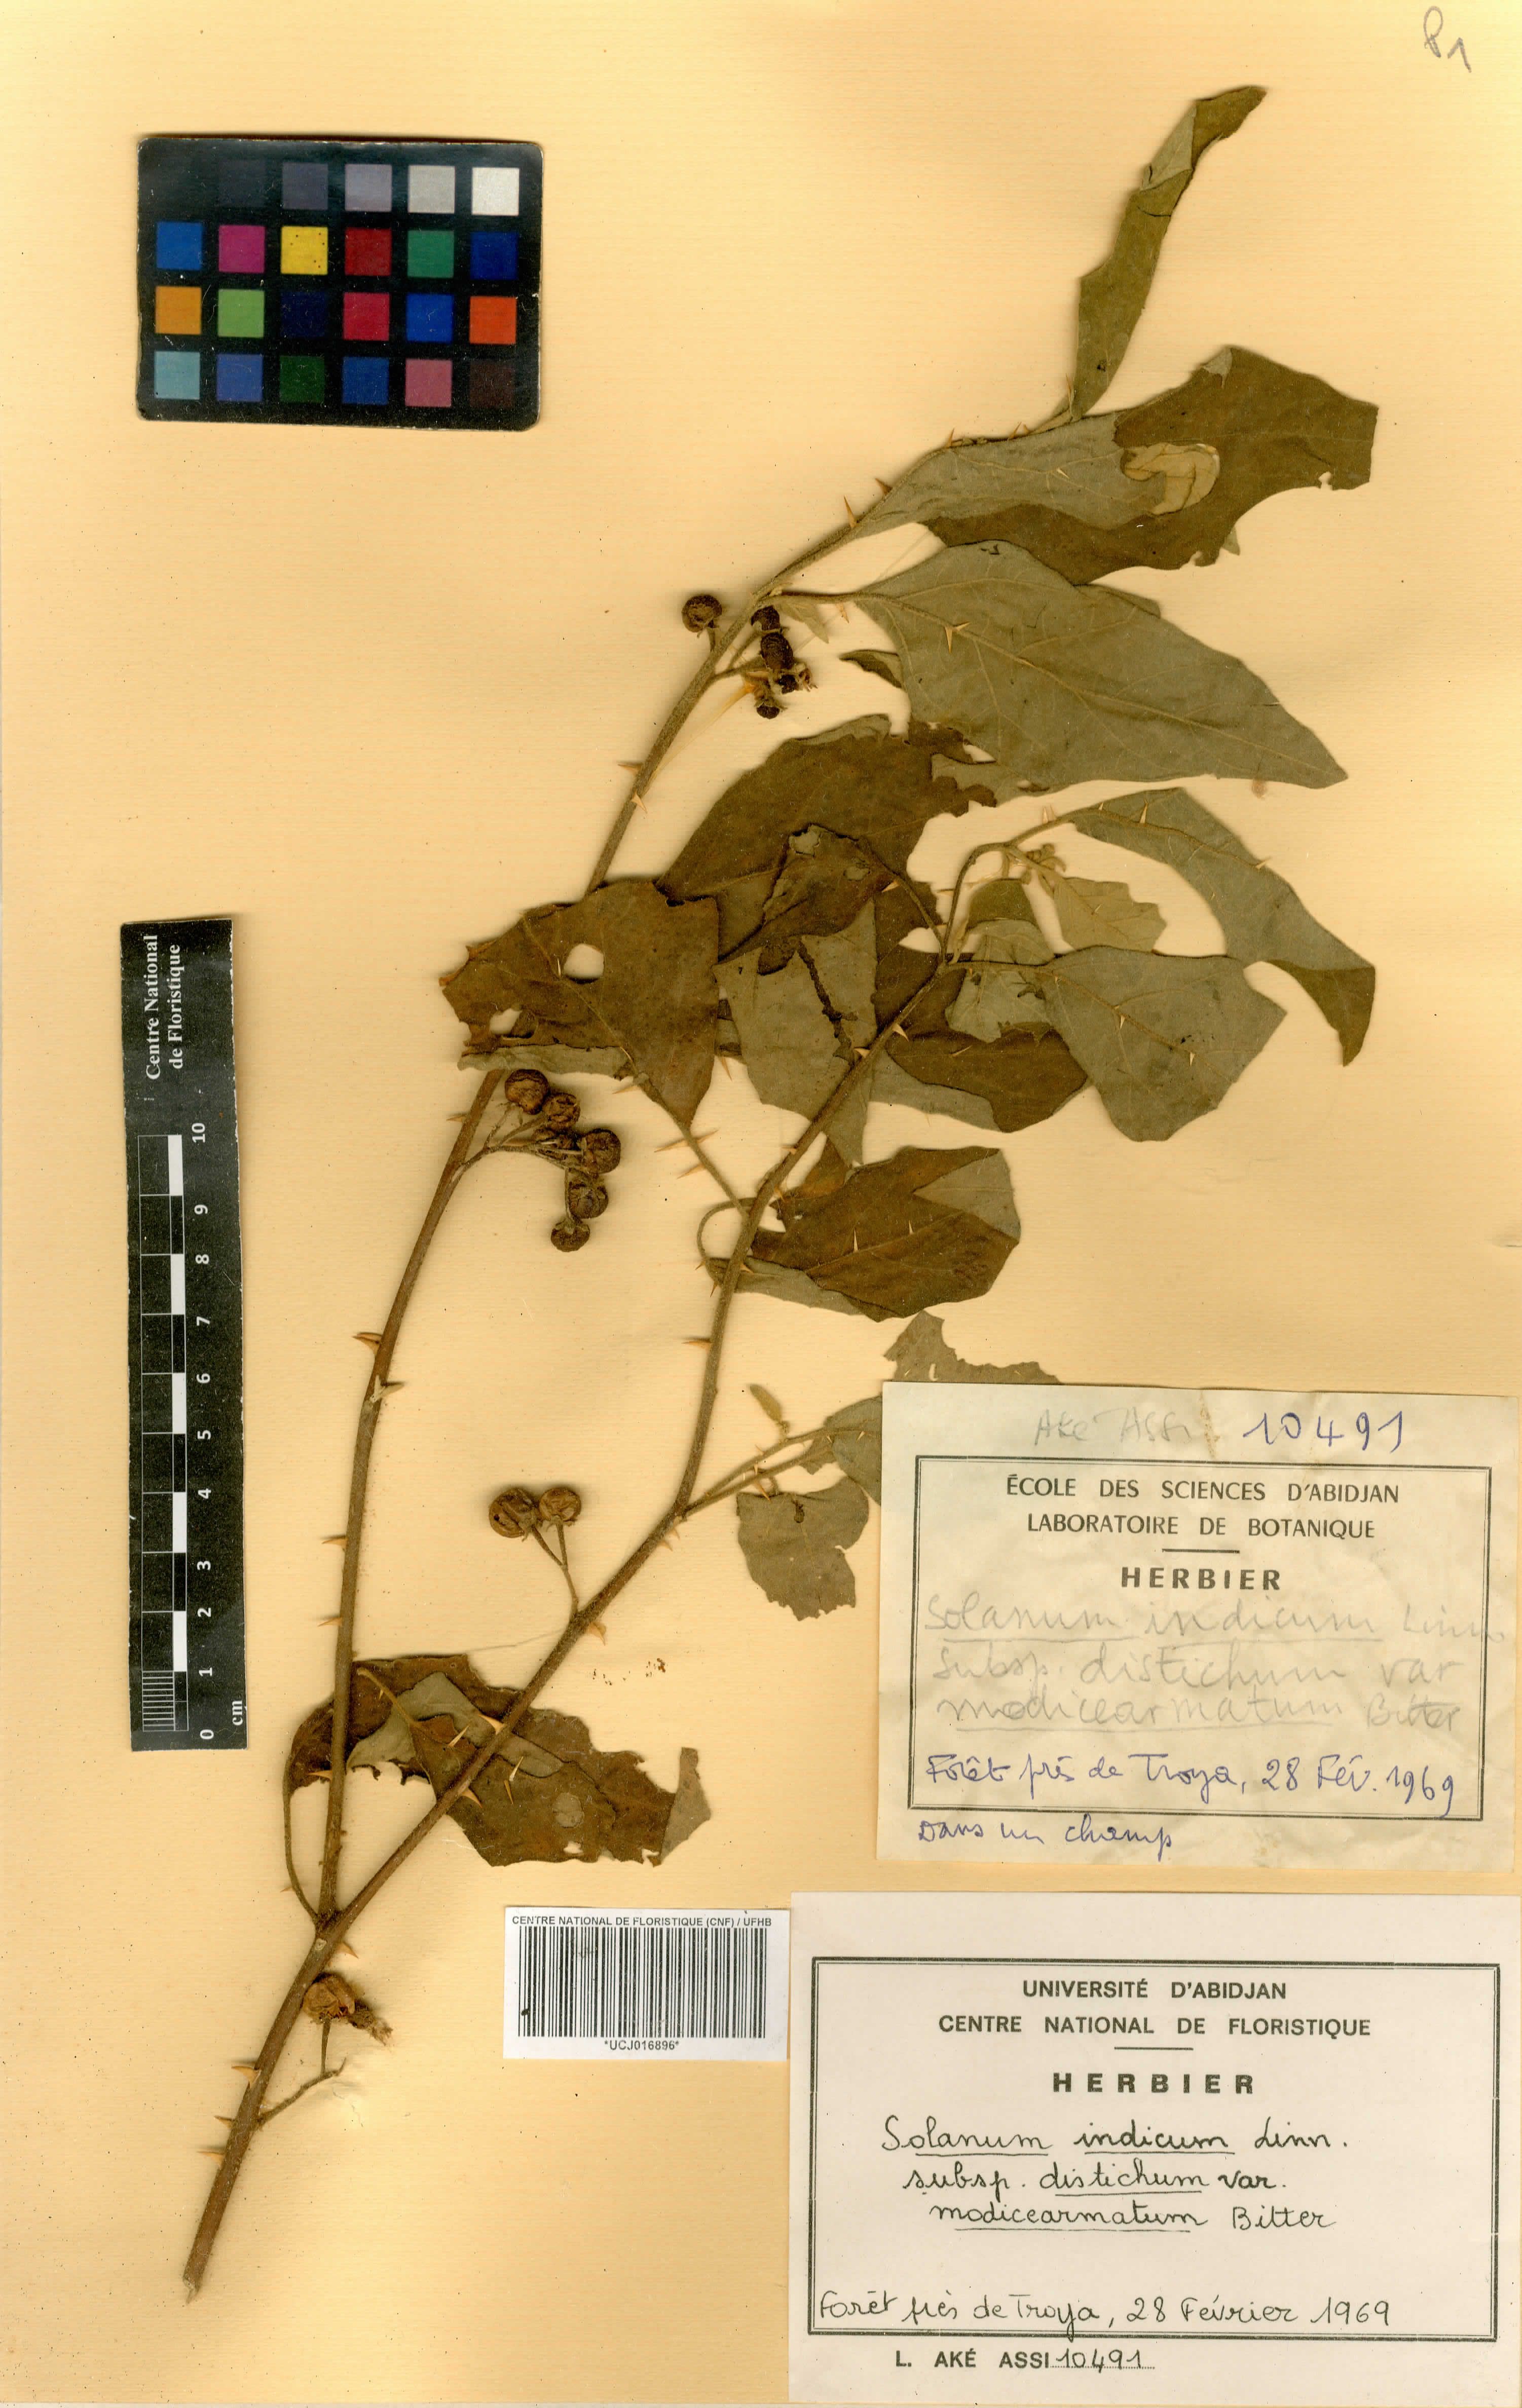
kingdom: Plantae
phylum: Tracheophyta
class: Magnoliopsida
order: Solanales
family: Solanaceae
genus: Solanum
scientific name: Solanum anguivi
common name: Forest bitterberry
